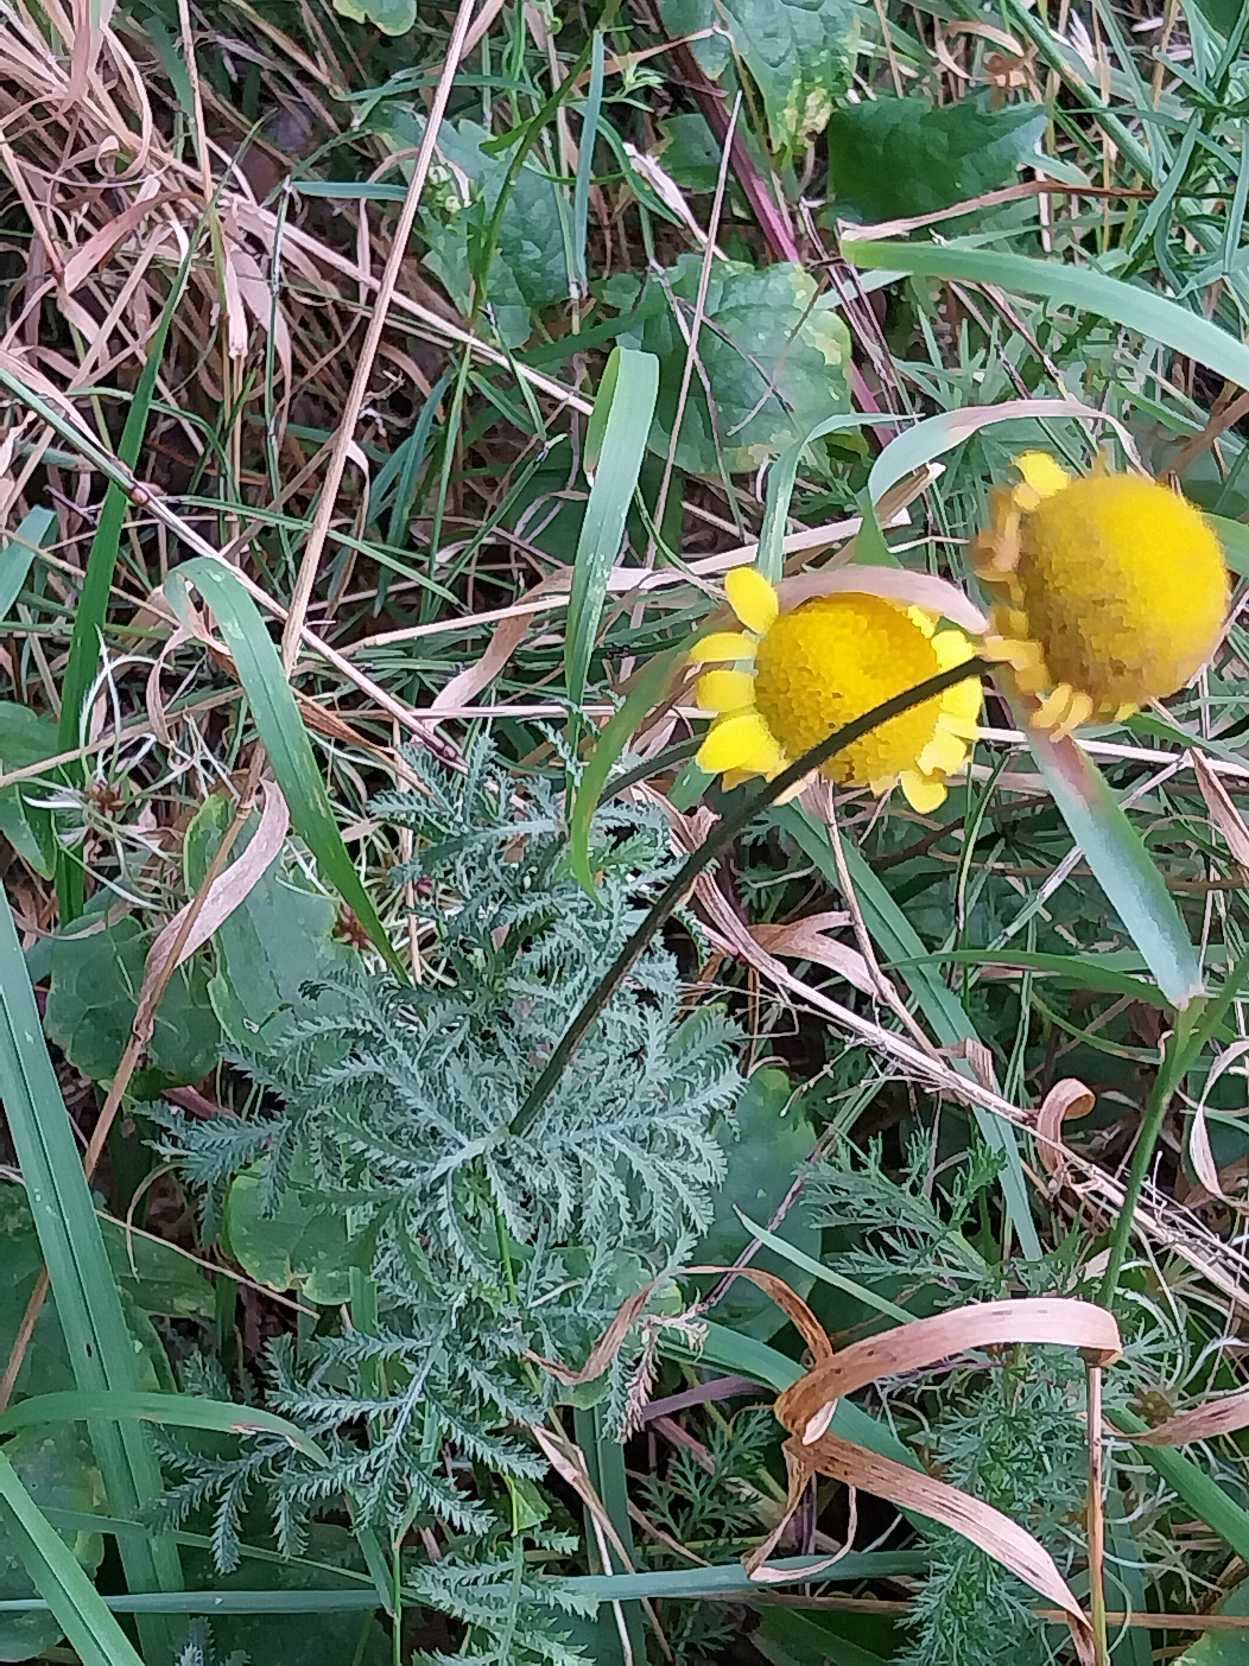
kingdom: Plantae
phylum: Tracheophyta
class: Magnoliopsida
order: Asterales
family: Asteraceae
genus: Cota
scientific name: Cota tinctoria
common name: Farve-gåseurt
